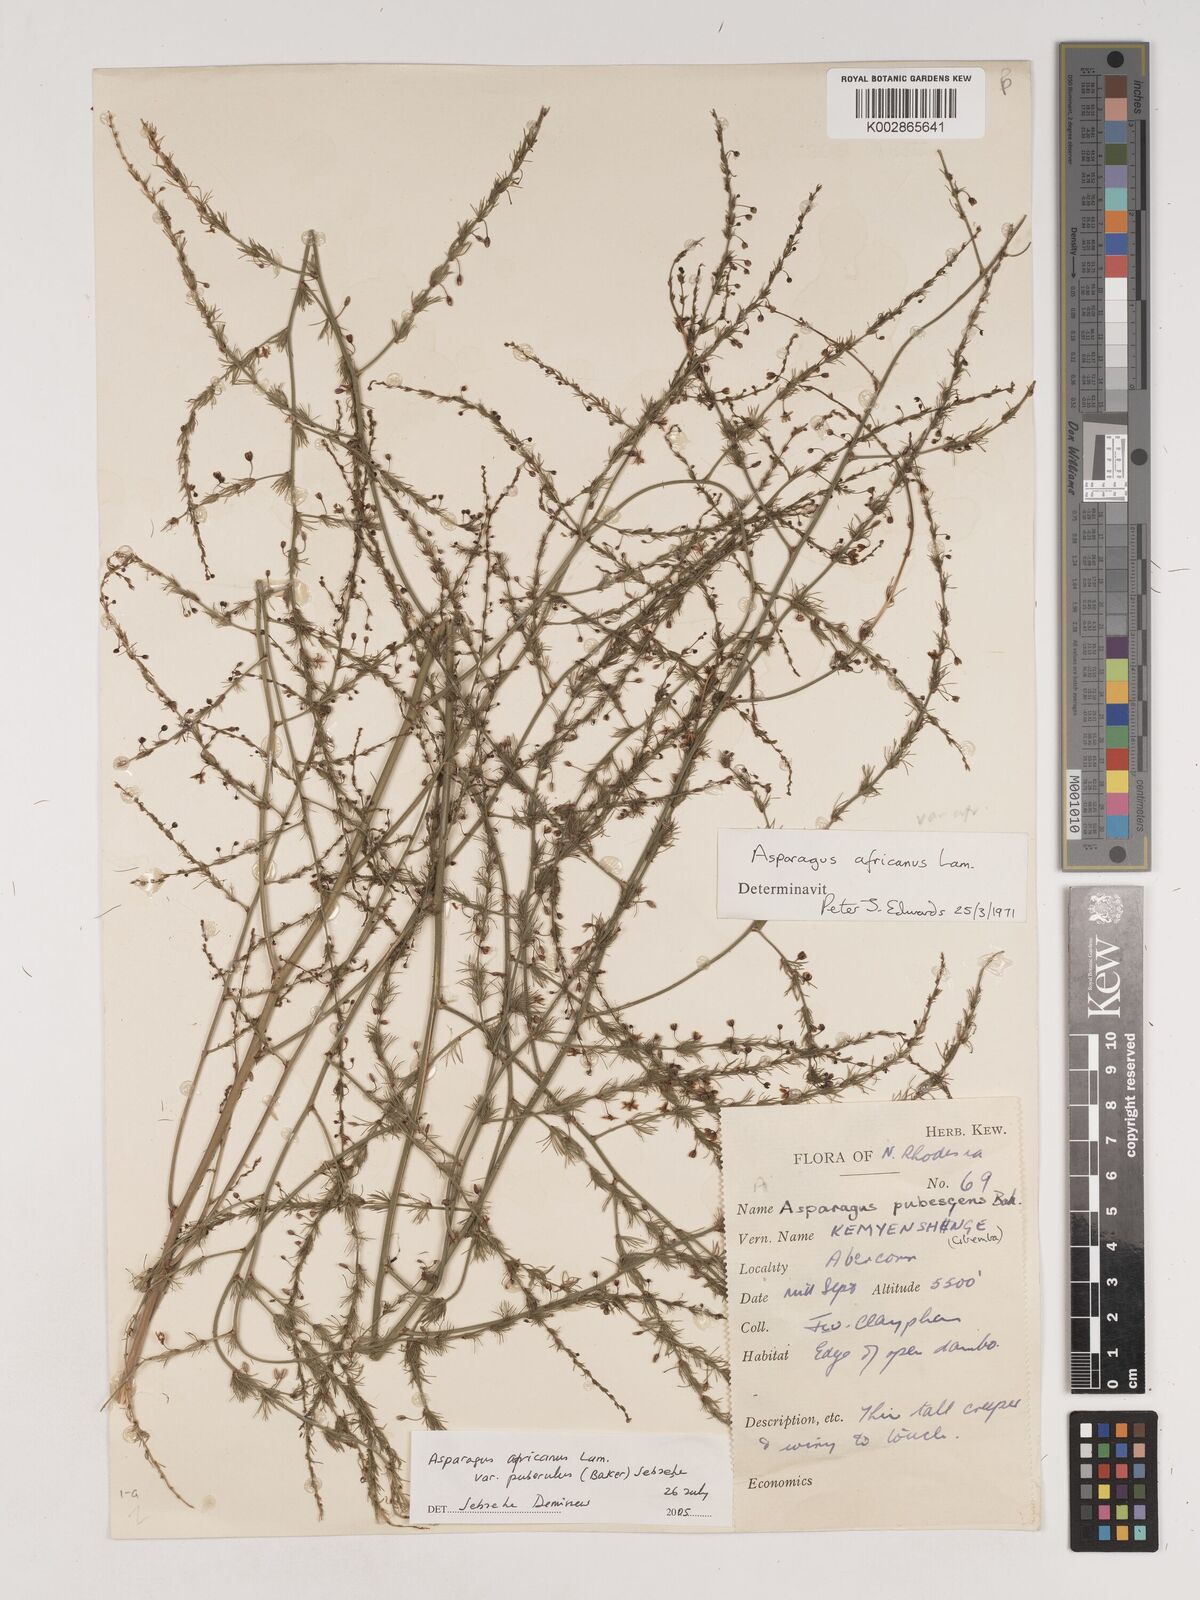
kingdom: Plantae
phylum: Tracheophyta
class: Liliopsida
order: Asparagales
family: Asparagaceae
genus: Asparagus
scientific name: Asparagus africanus
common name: Asparagus-fern
